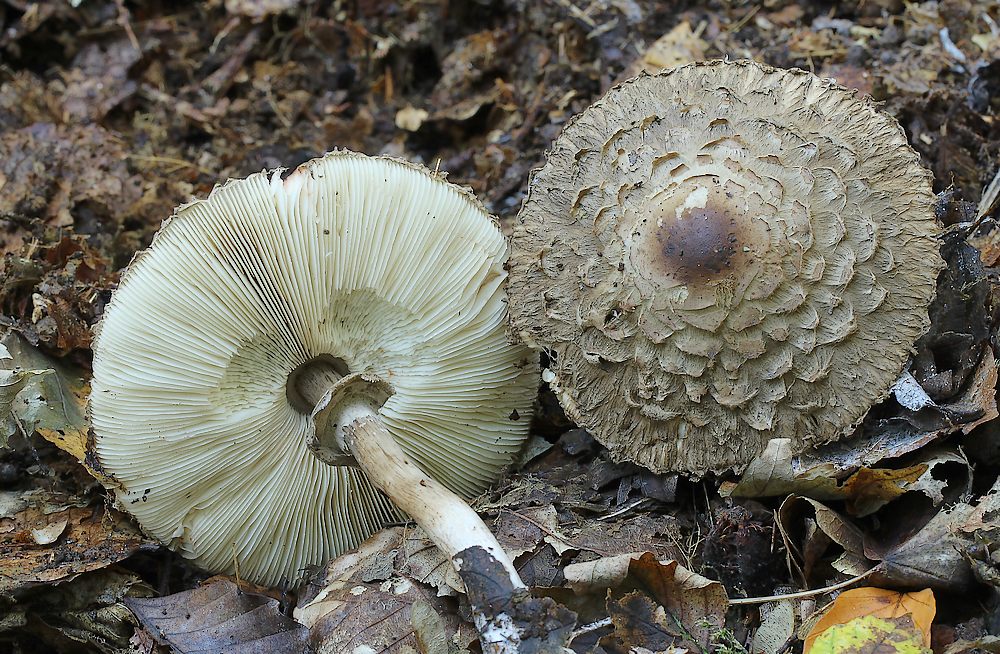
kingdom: Fungi
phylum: Basidiomycota
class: Agaricomycetes
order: Agaricales
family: Agaricaceae
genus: Chlorophyllum
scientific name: Chlorophyllum olivieri
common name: almindelig rabarberhat
